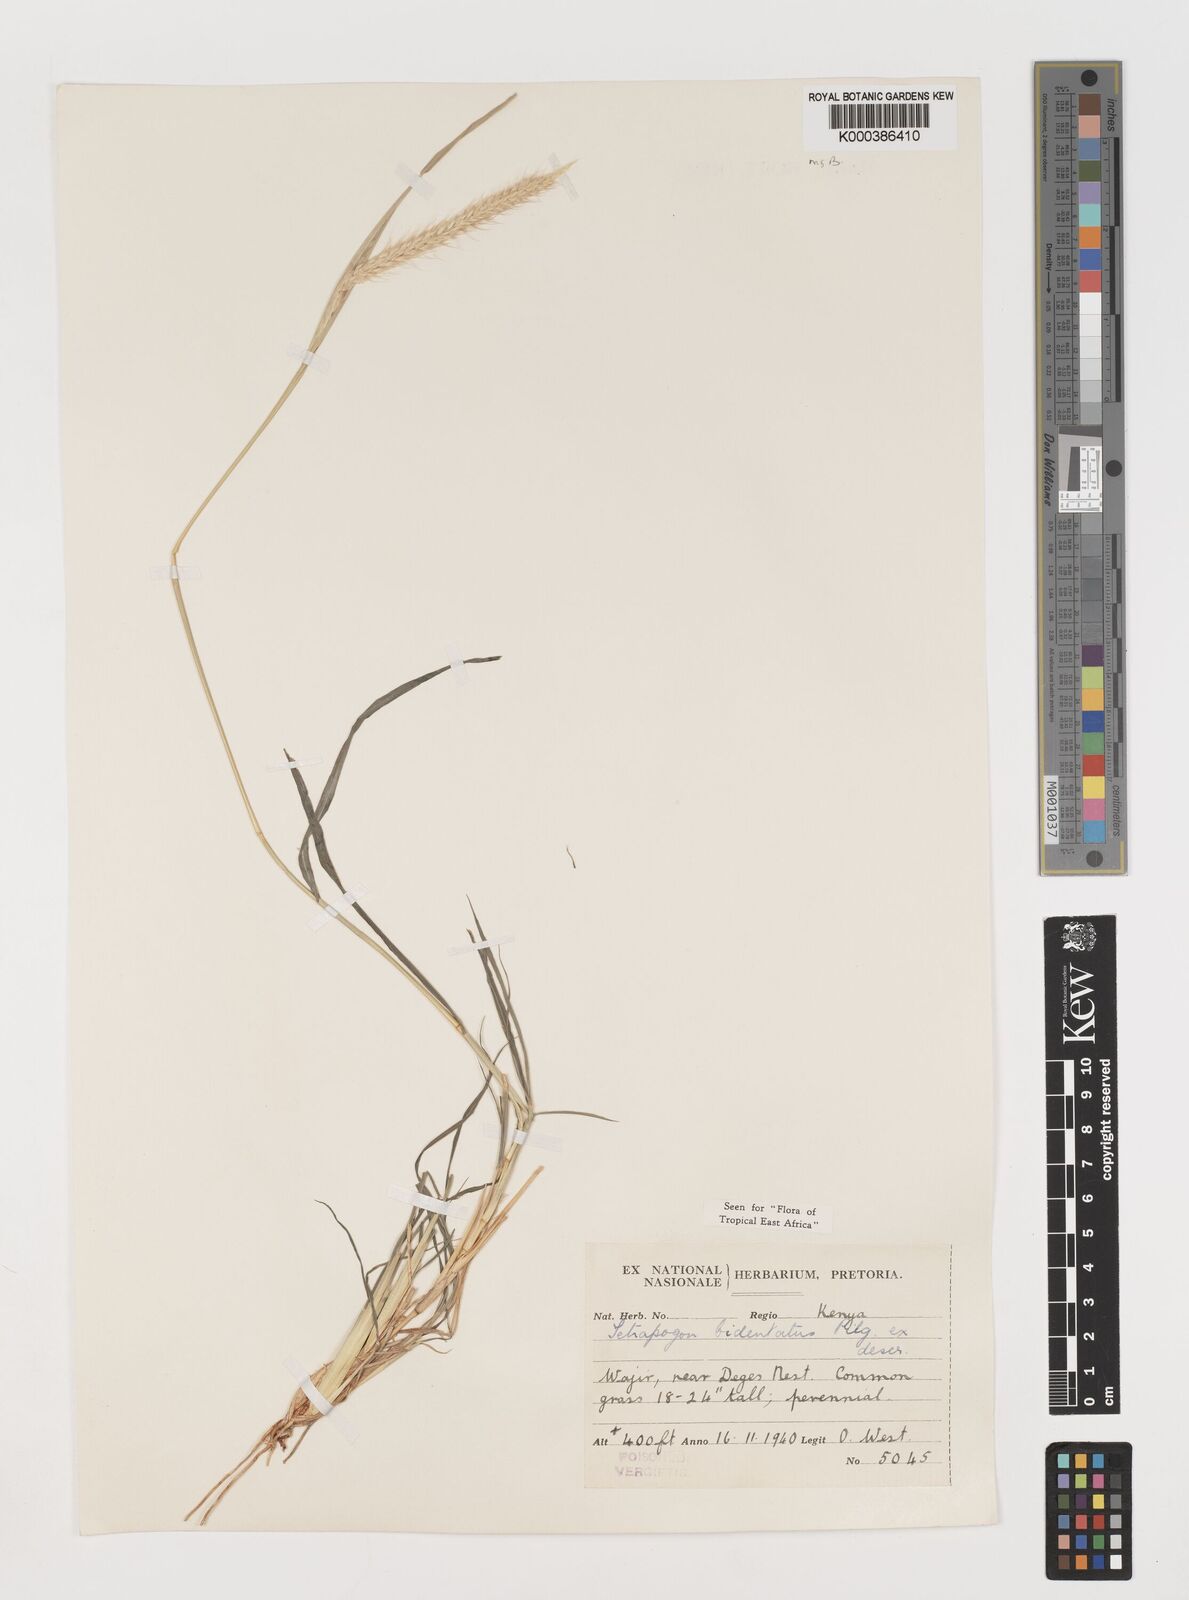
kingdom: Plantae
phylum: Tracheophyta
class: Liliopsida
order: Poales
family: Poaceae
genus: Tetrapogon
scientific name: Tetrapogon bidentatus
